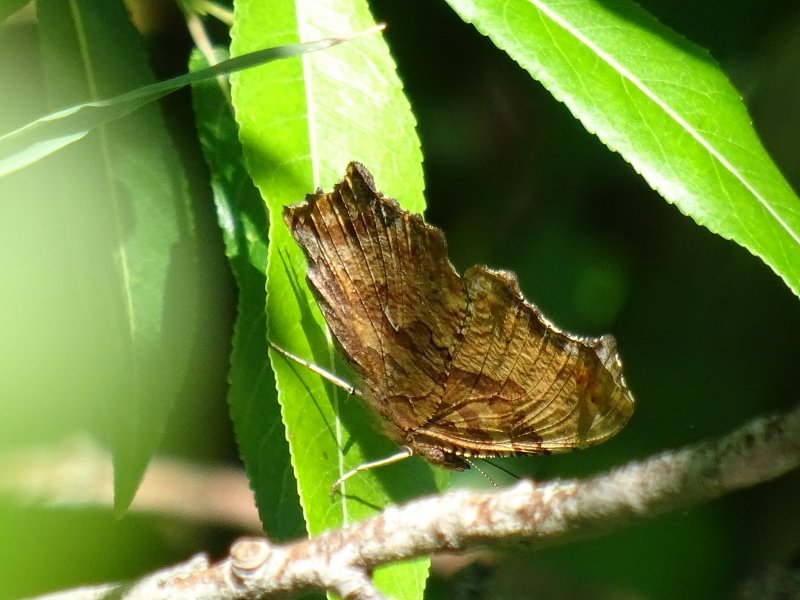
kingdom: Animalia
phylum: Arthropoda
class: Insecta
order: Lepidoptera
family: Nymphalidae
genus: Polygonia
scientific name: Polygonia comma
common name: Eastern Comma
